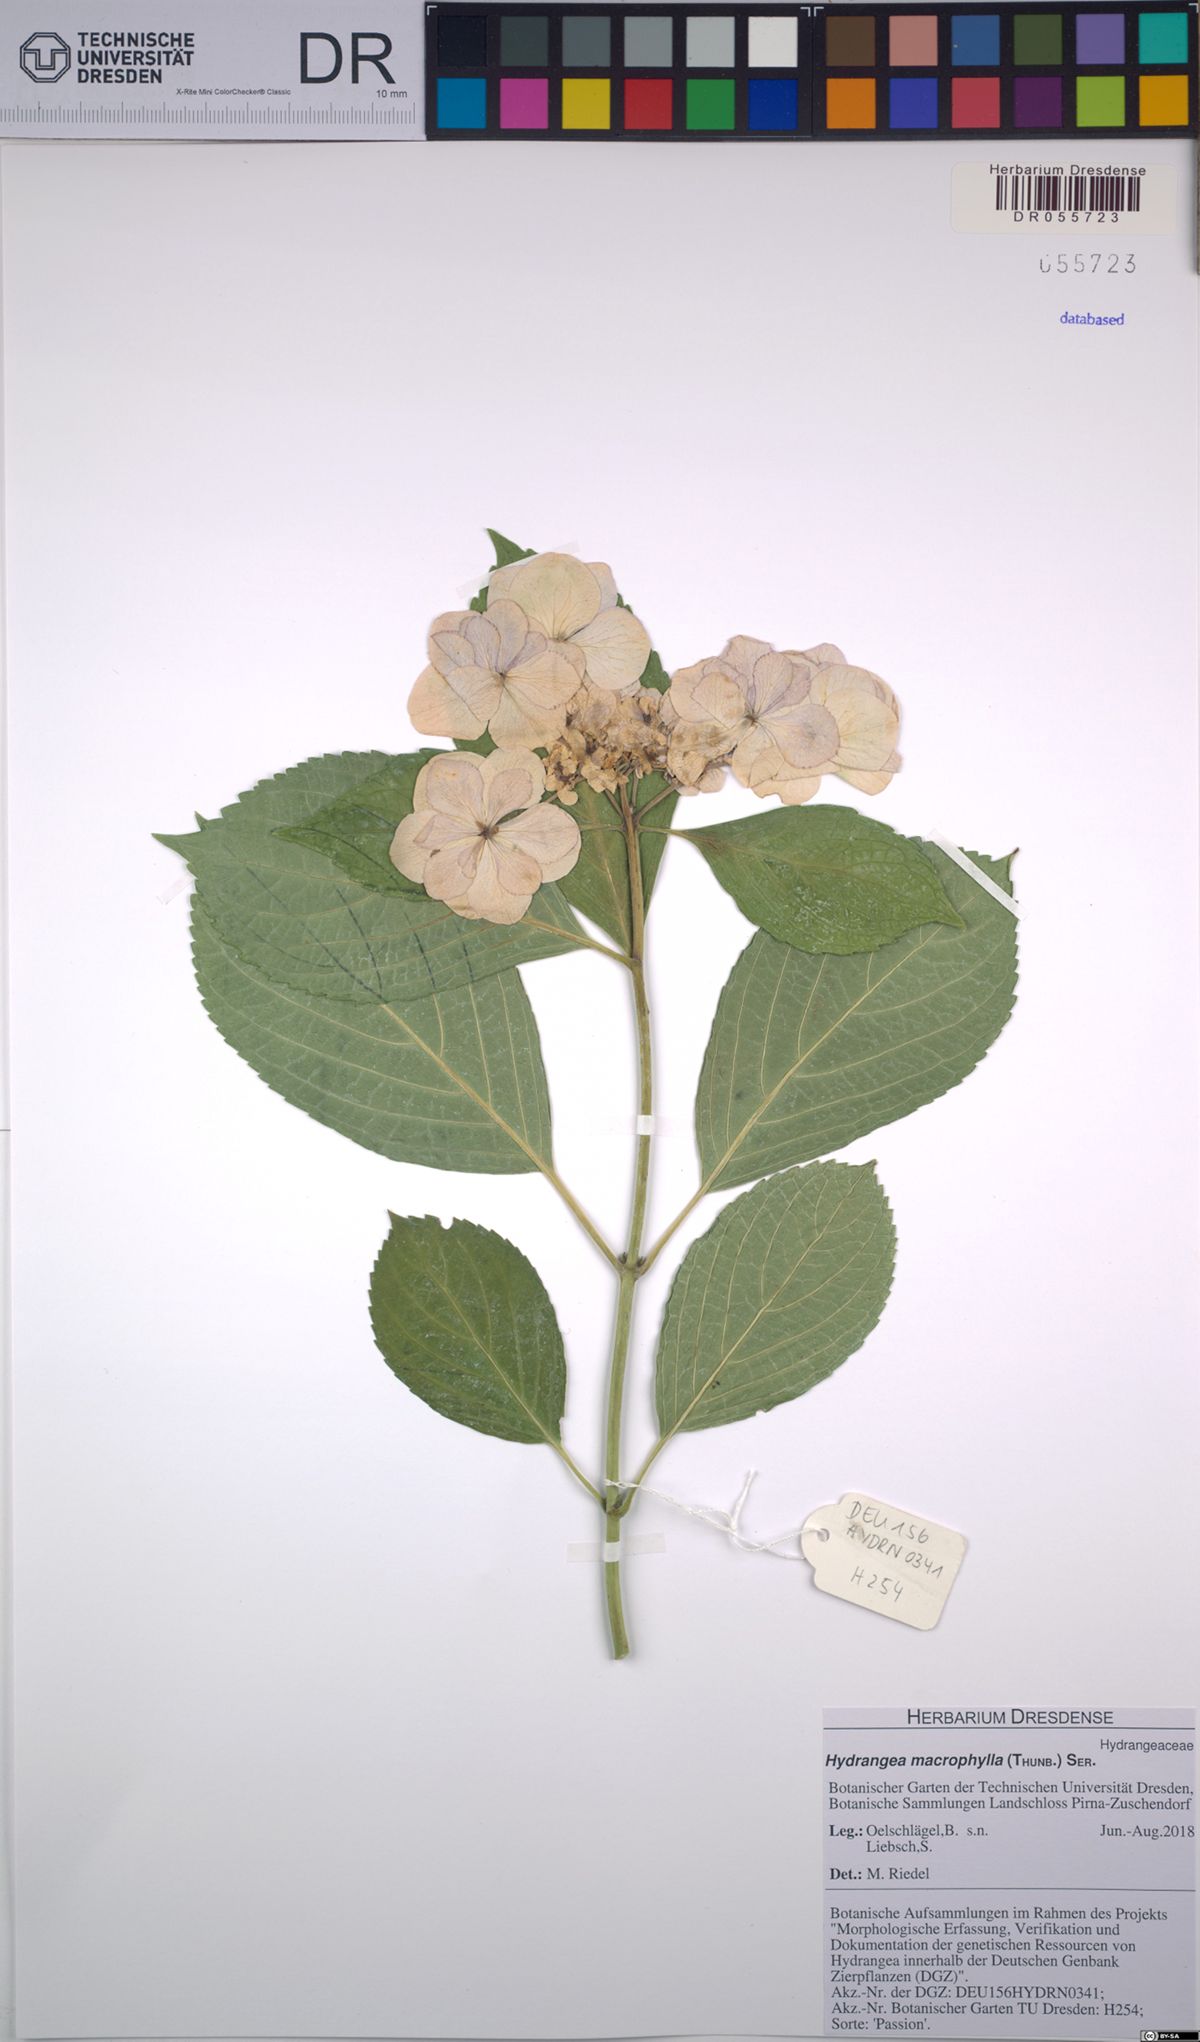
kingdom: Plantae
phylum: Tracheophyta
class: Magnoliopsida
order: Cornales
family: Hydrangeaceae
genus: Hydrangea
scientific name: Hydrangea macrophylla
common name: Hydrangea
